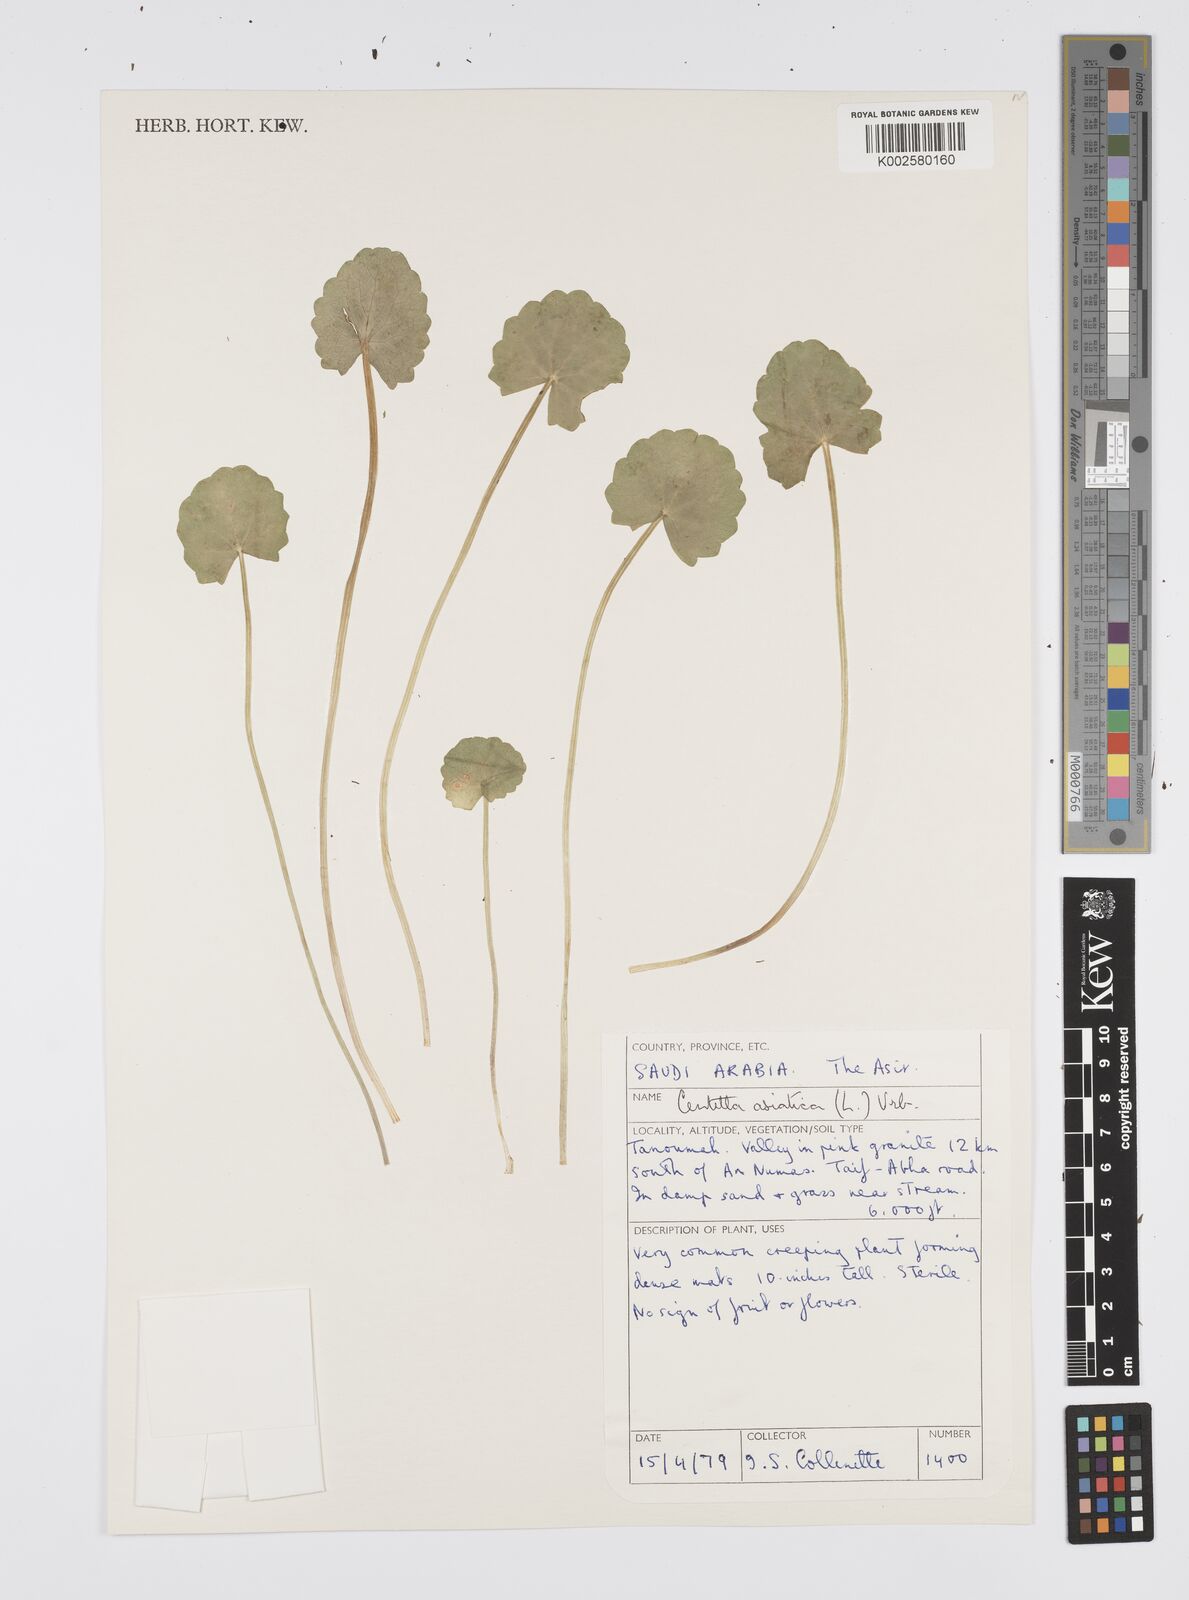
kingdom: Plantae
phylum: Tracheophyta
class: Magnoliopsida
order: Apiales
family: Apiaceae
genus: Centella
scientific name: Centella asiatica
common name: Spadeleaf
